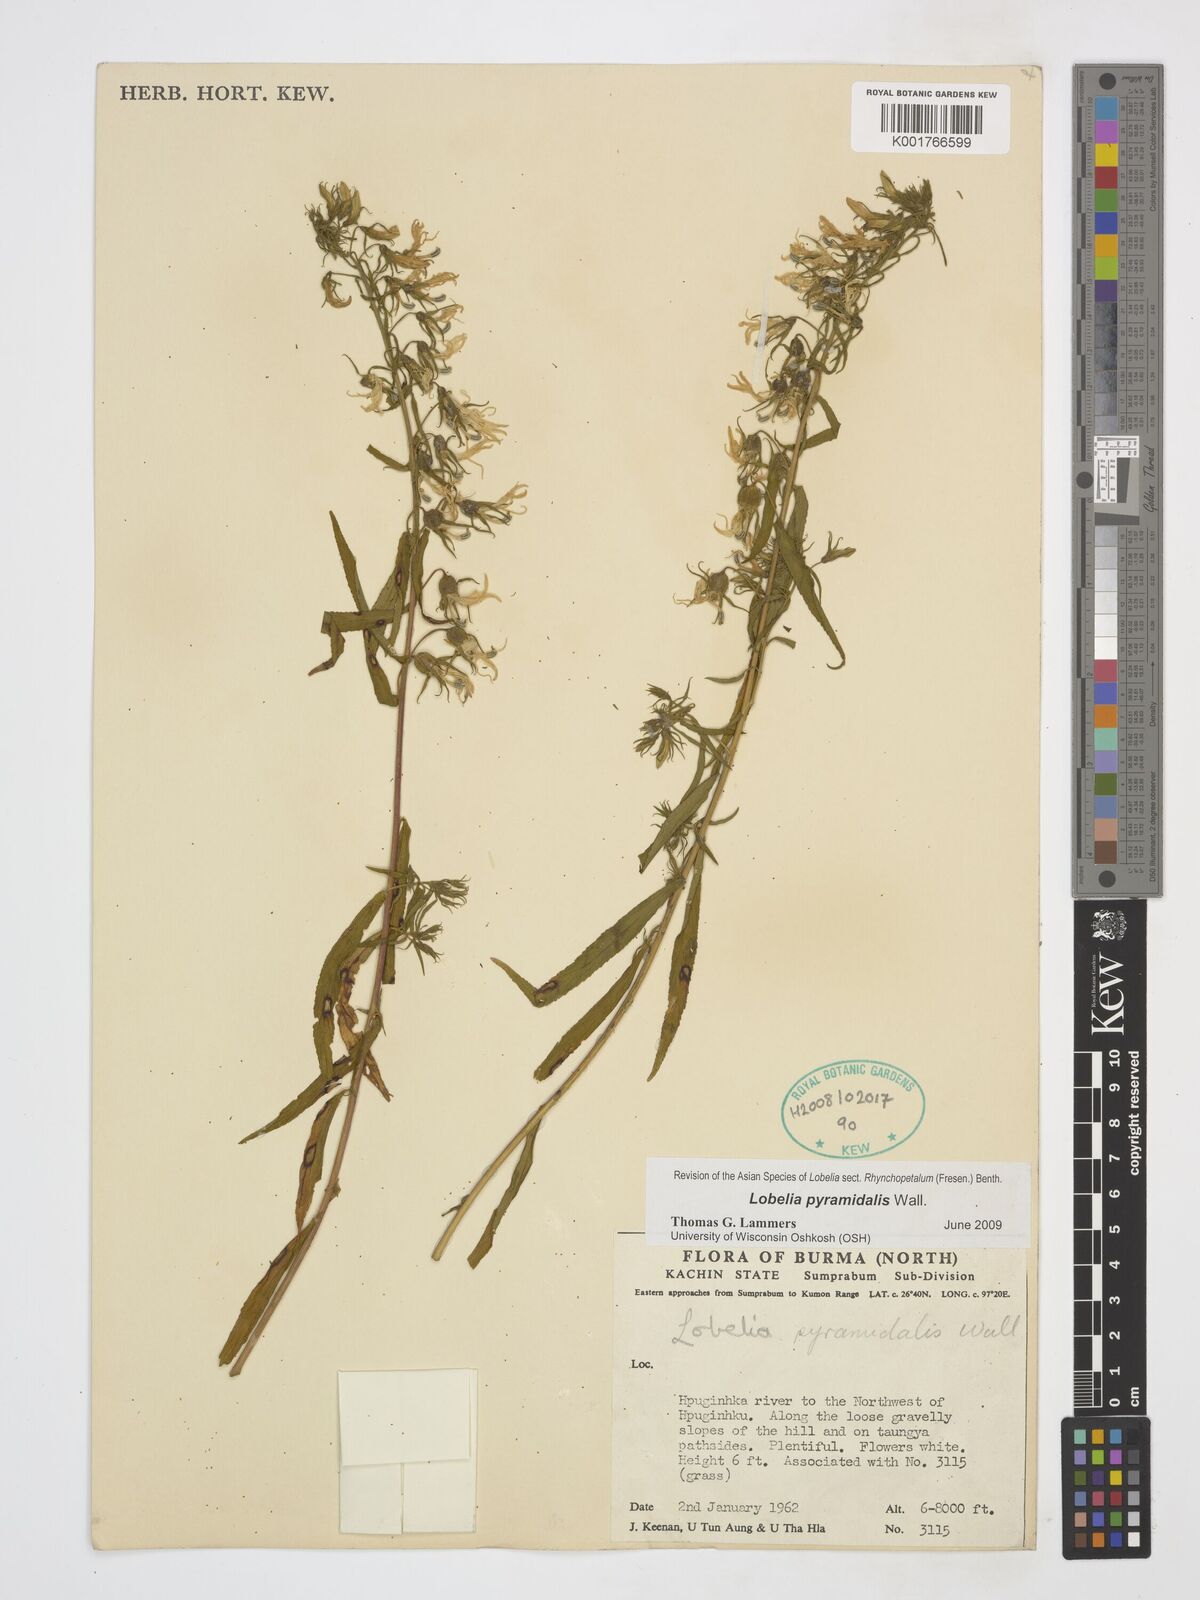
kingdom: Plantae
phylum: Tracheophyta
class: Magnoliopsida
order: Asterales
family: Campanulaceae
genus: Lobelia
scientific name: Lobelia pyramidalis
